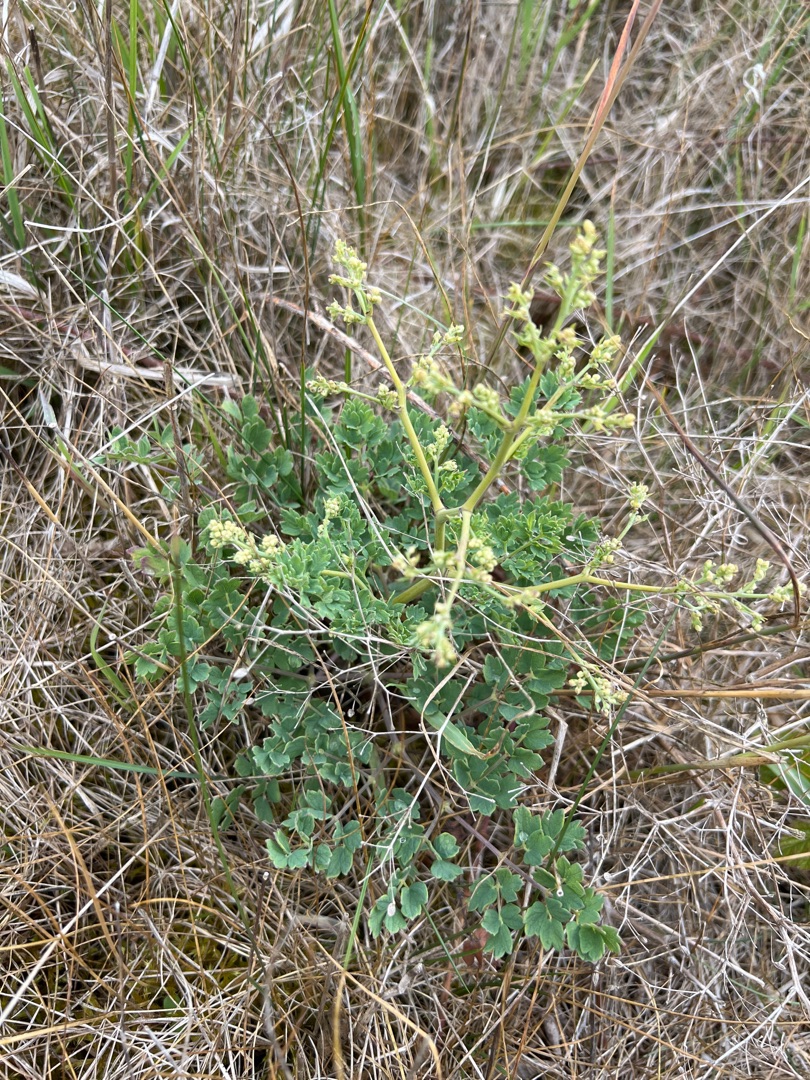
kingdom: Plantae
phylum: Tracheophyta
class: Magnoliopsida
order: Ranunculales
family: Ranunculaceae
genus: Thalictrum
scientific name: Thalictrum minus
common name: Liden frøstjerne
